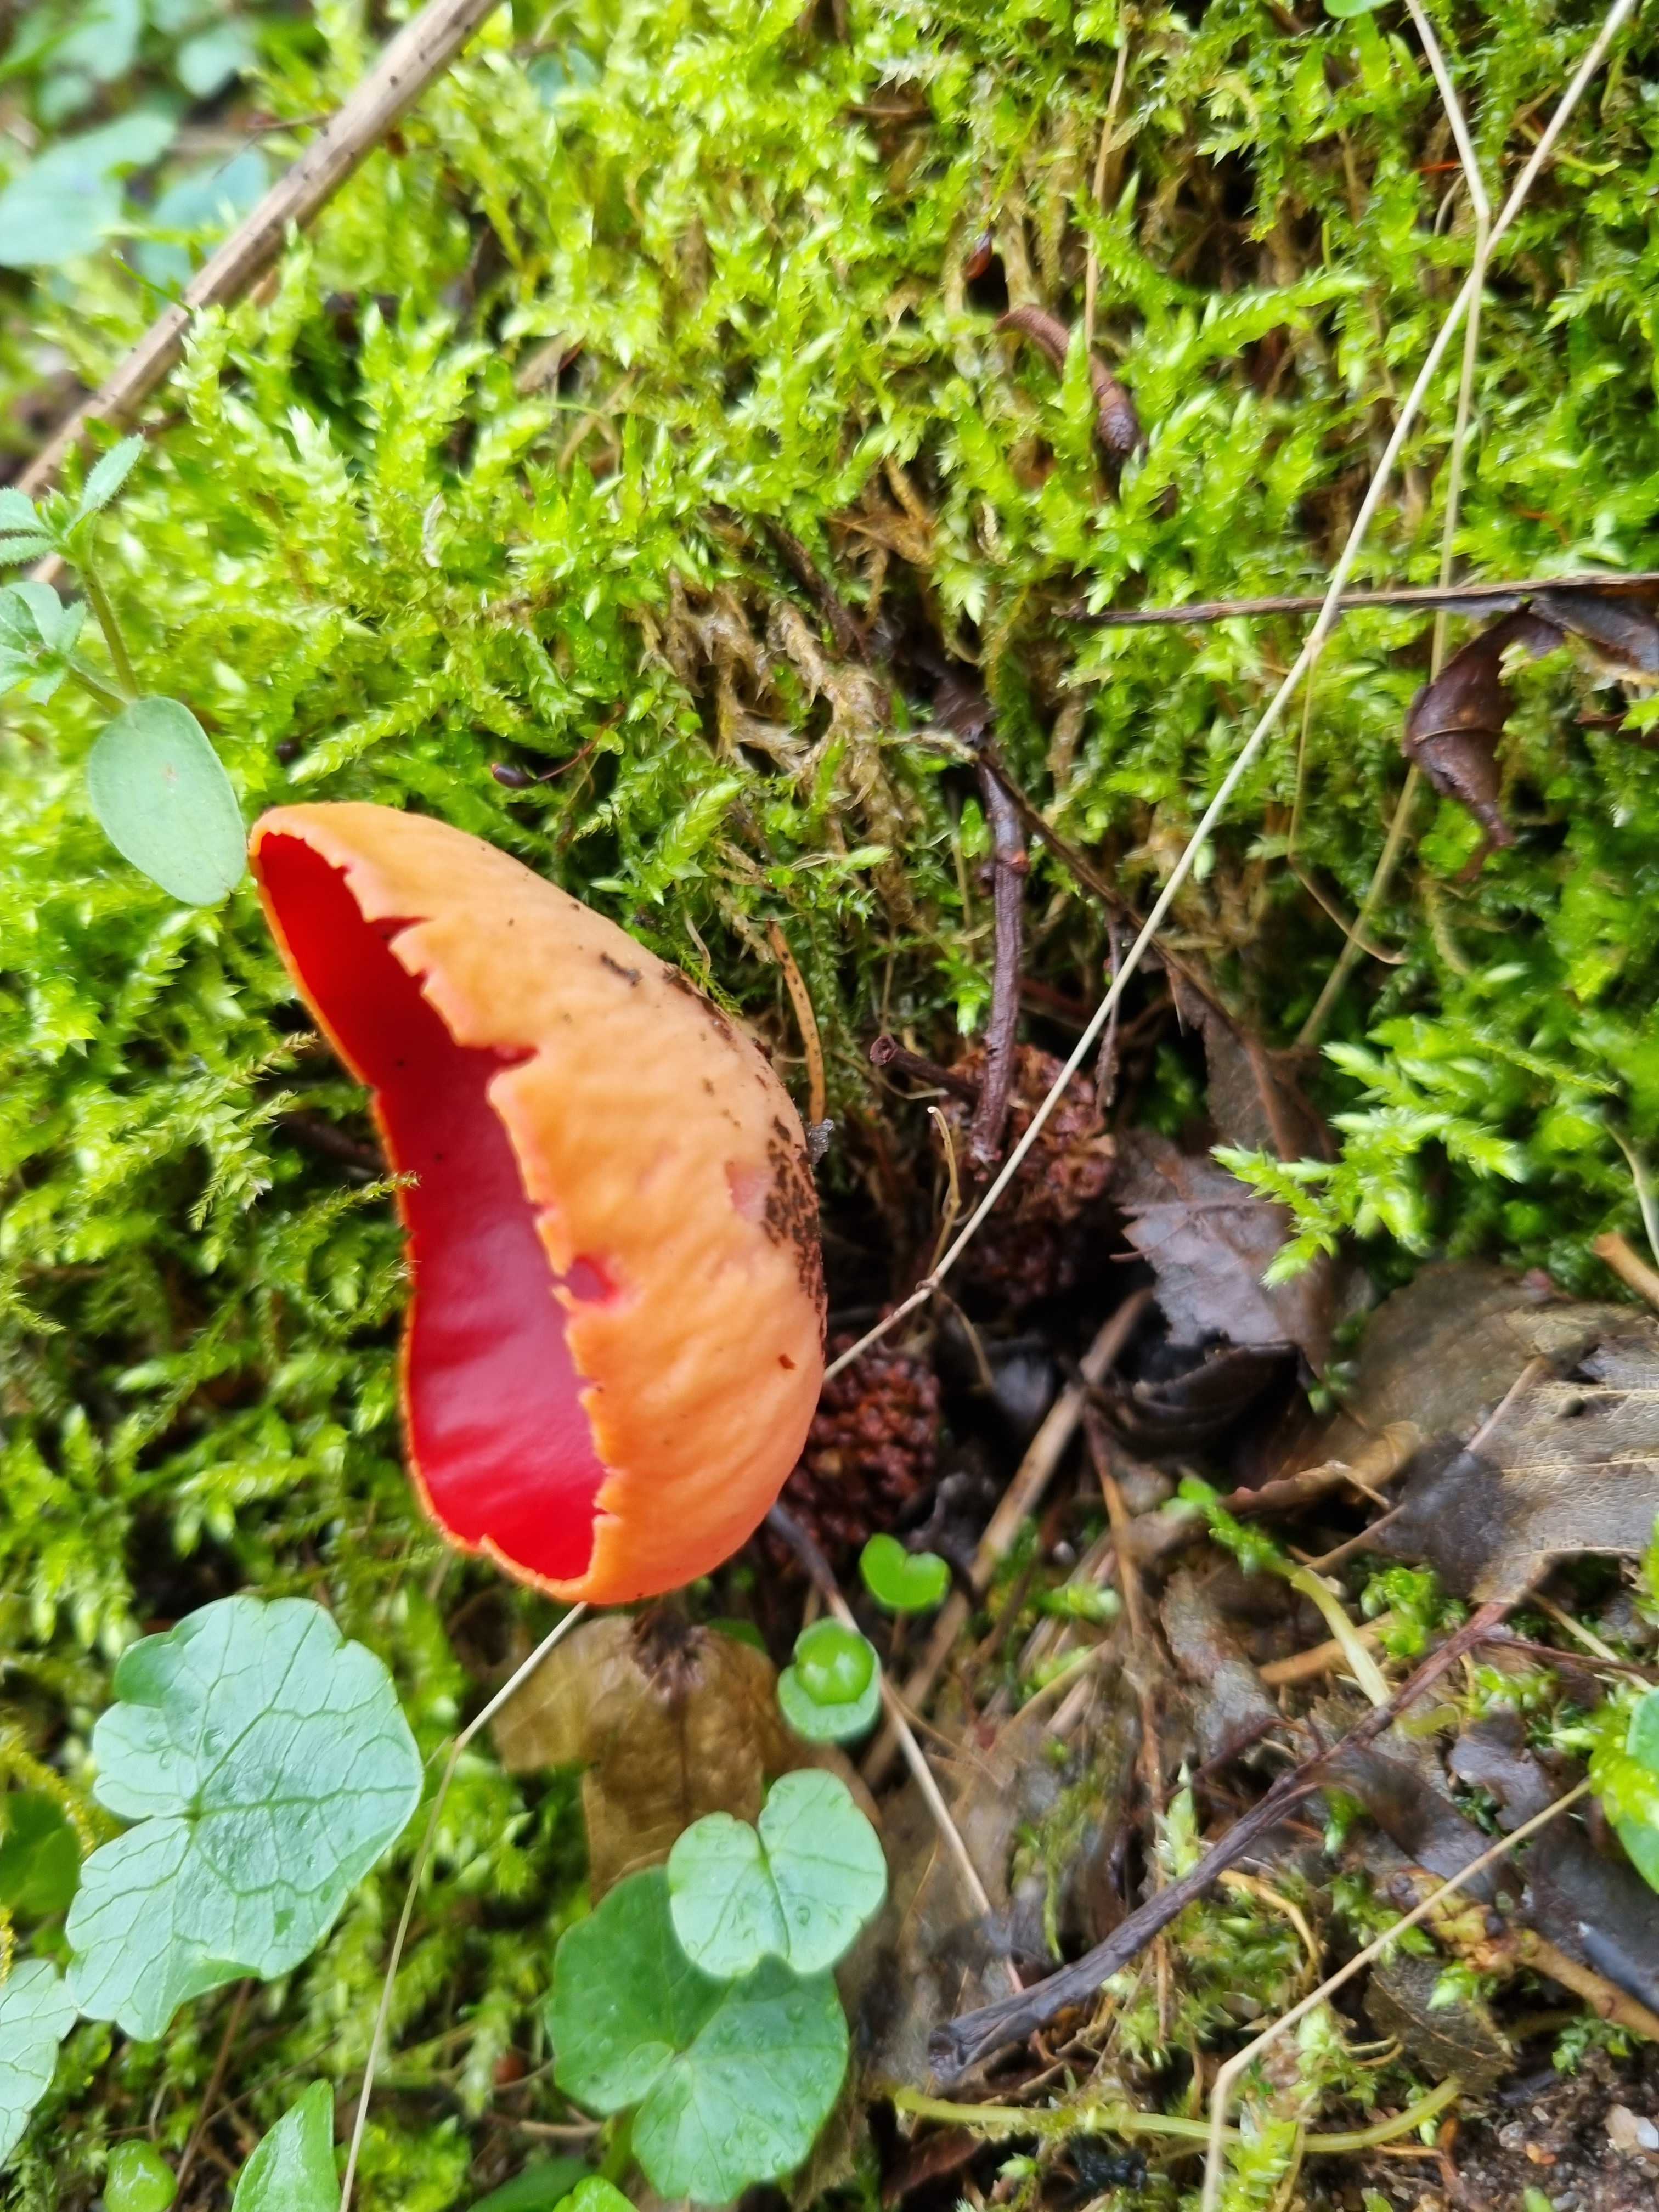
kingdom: Fungi
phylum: Ascomycota
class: Pezizomycetes
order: Pezizales
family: Sarcoscyphaceae
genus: Sarcoscypha
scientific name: Sarcoscypha austriaca
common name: krølhåret pragtbæger
